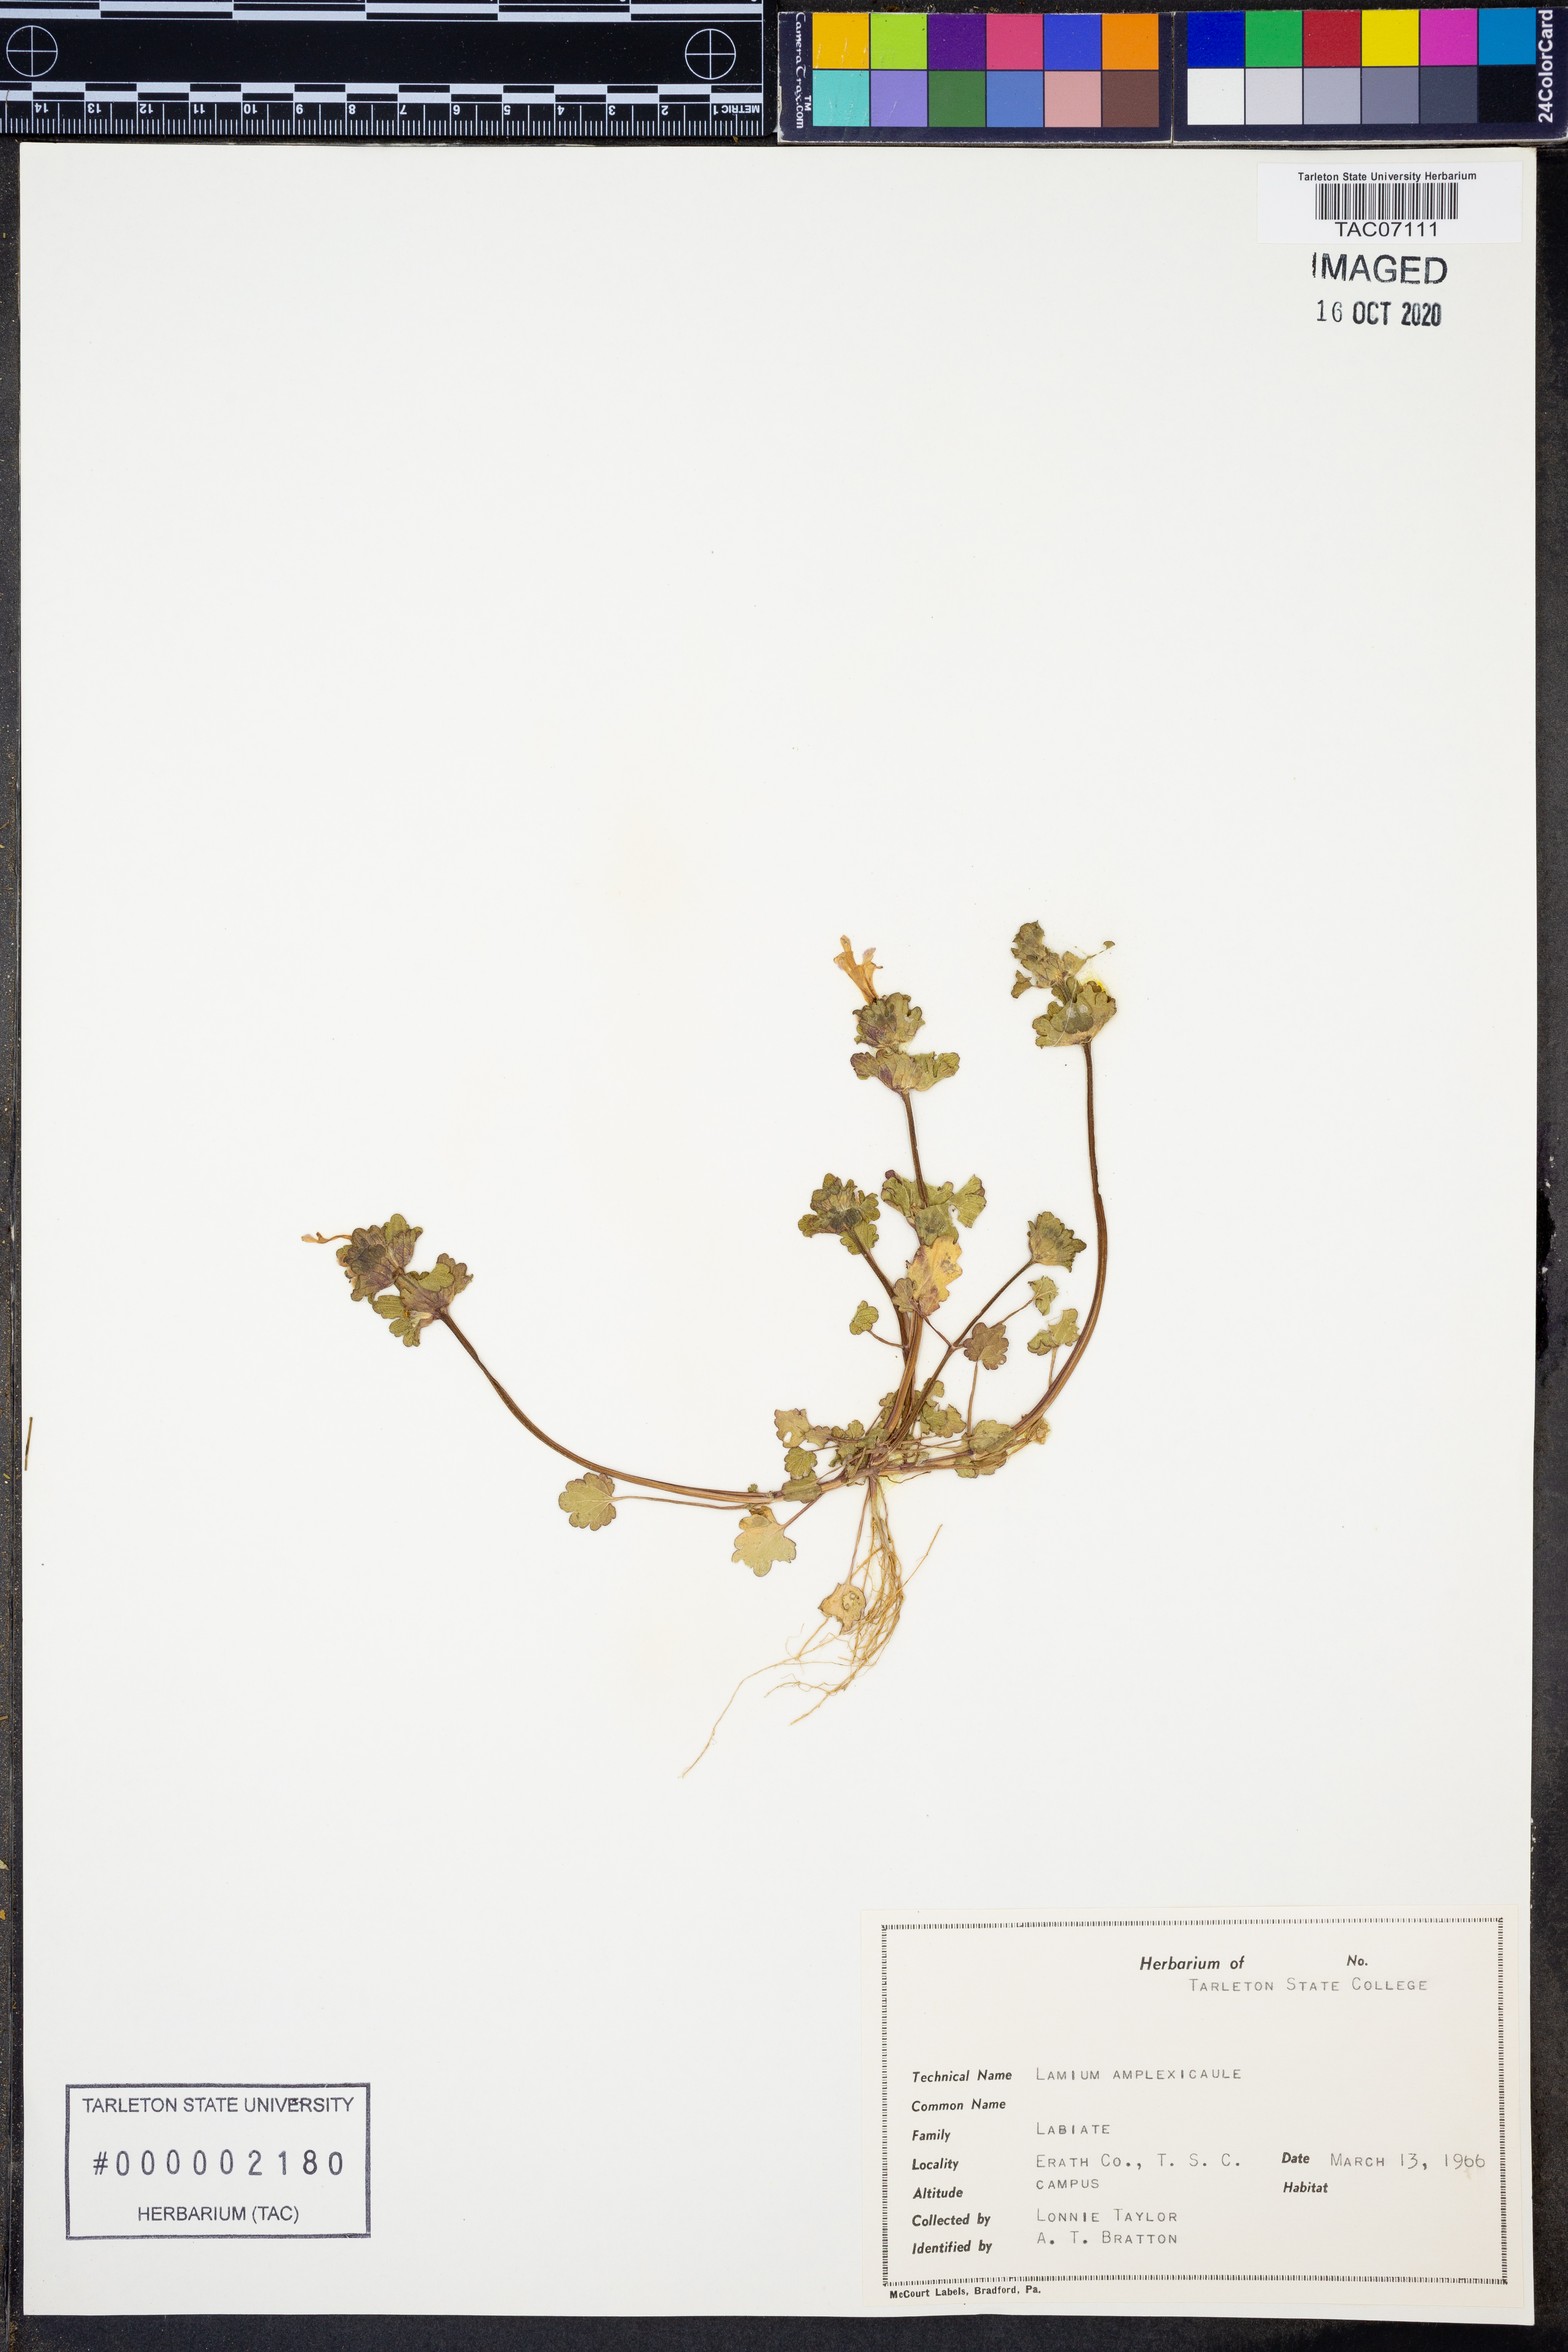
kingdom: Plantae
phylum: Tracheophyta
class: Magnoliopsida
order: Lamiales
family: Lamiaceae
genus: Lamium
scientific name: Lamium amplexicaule
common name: Henbit dead-nettle
